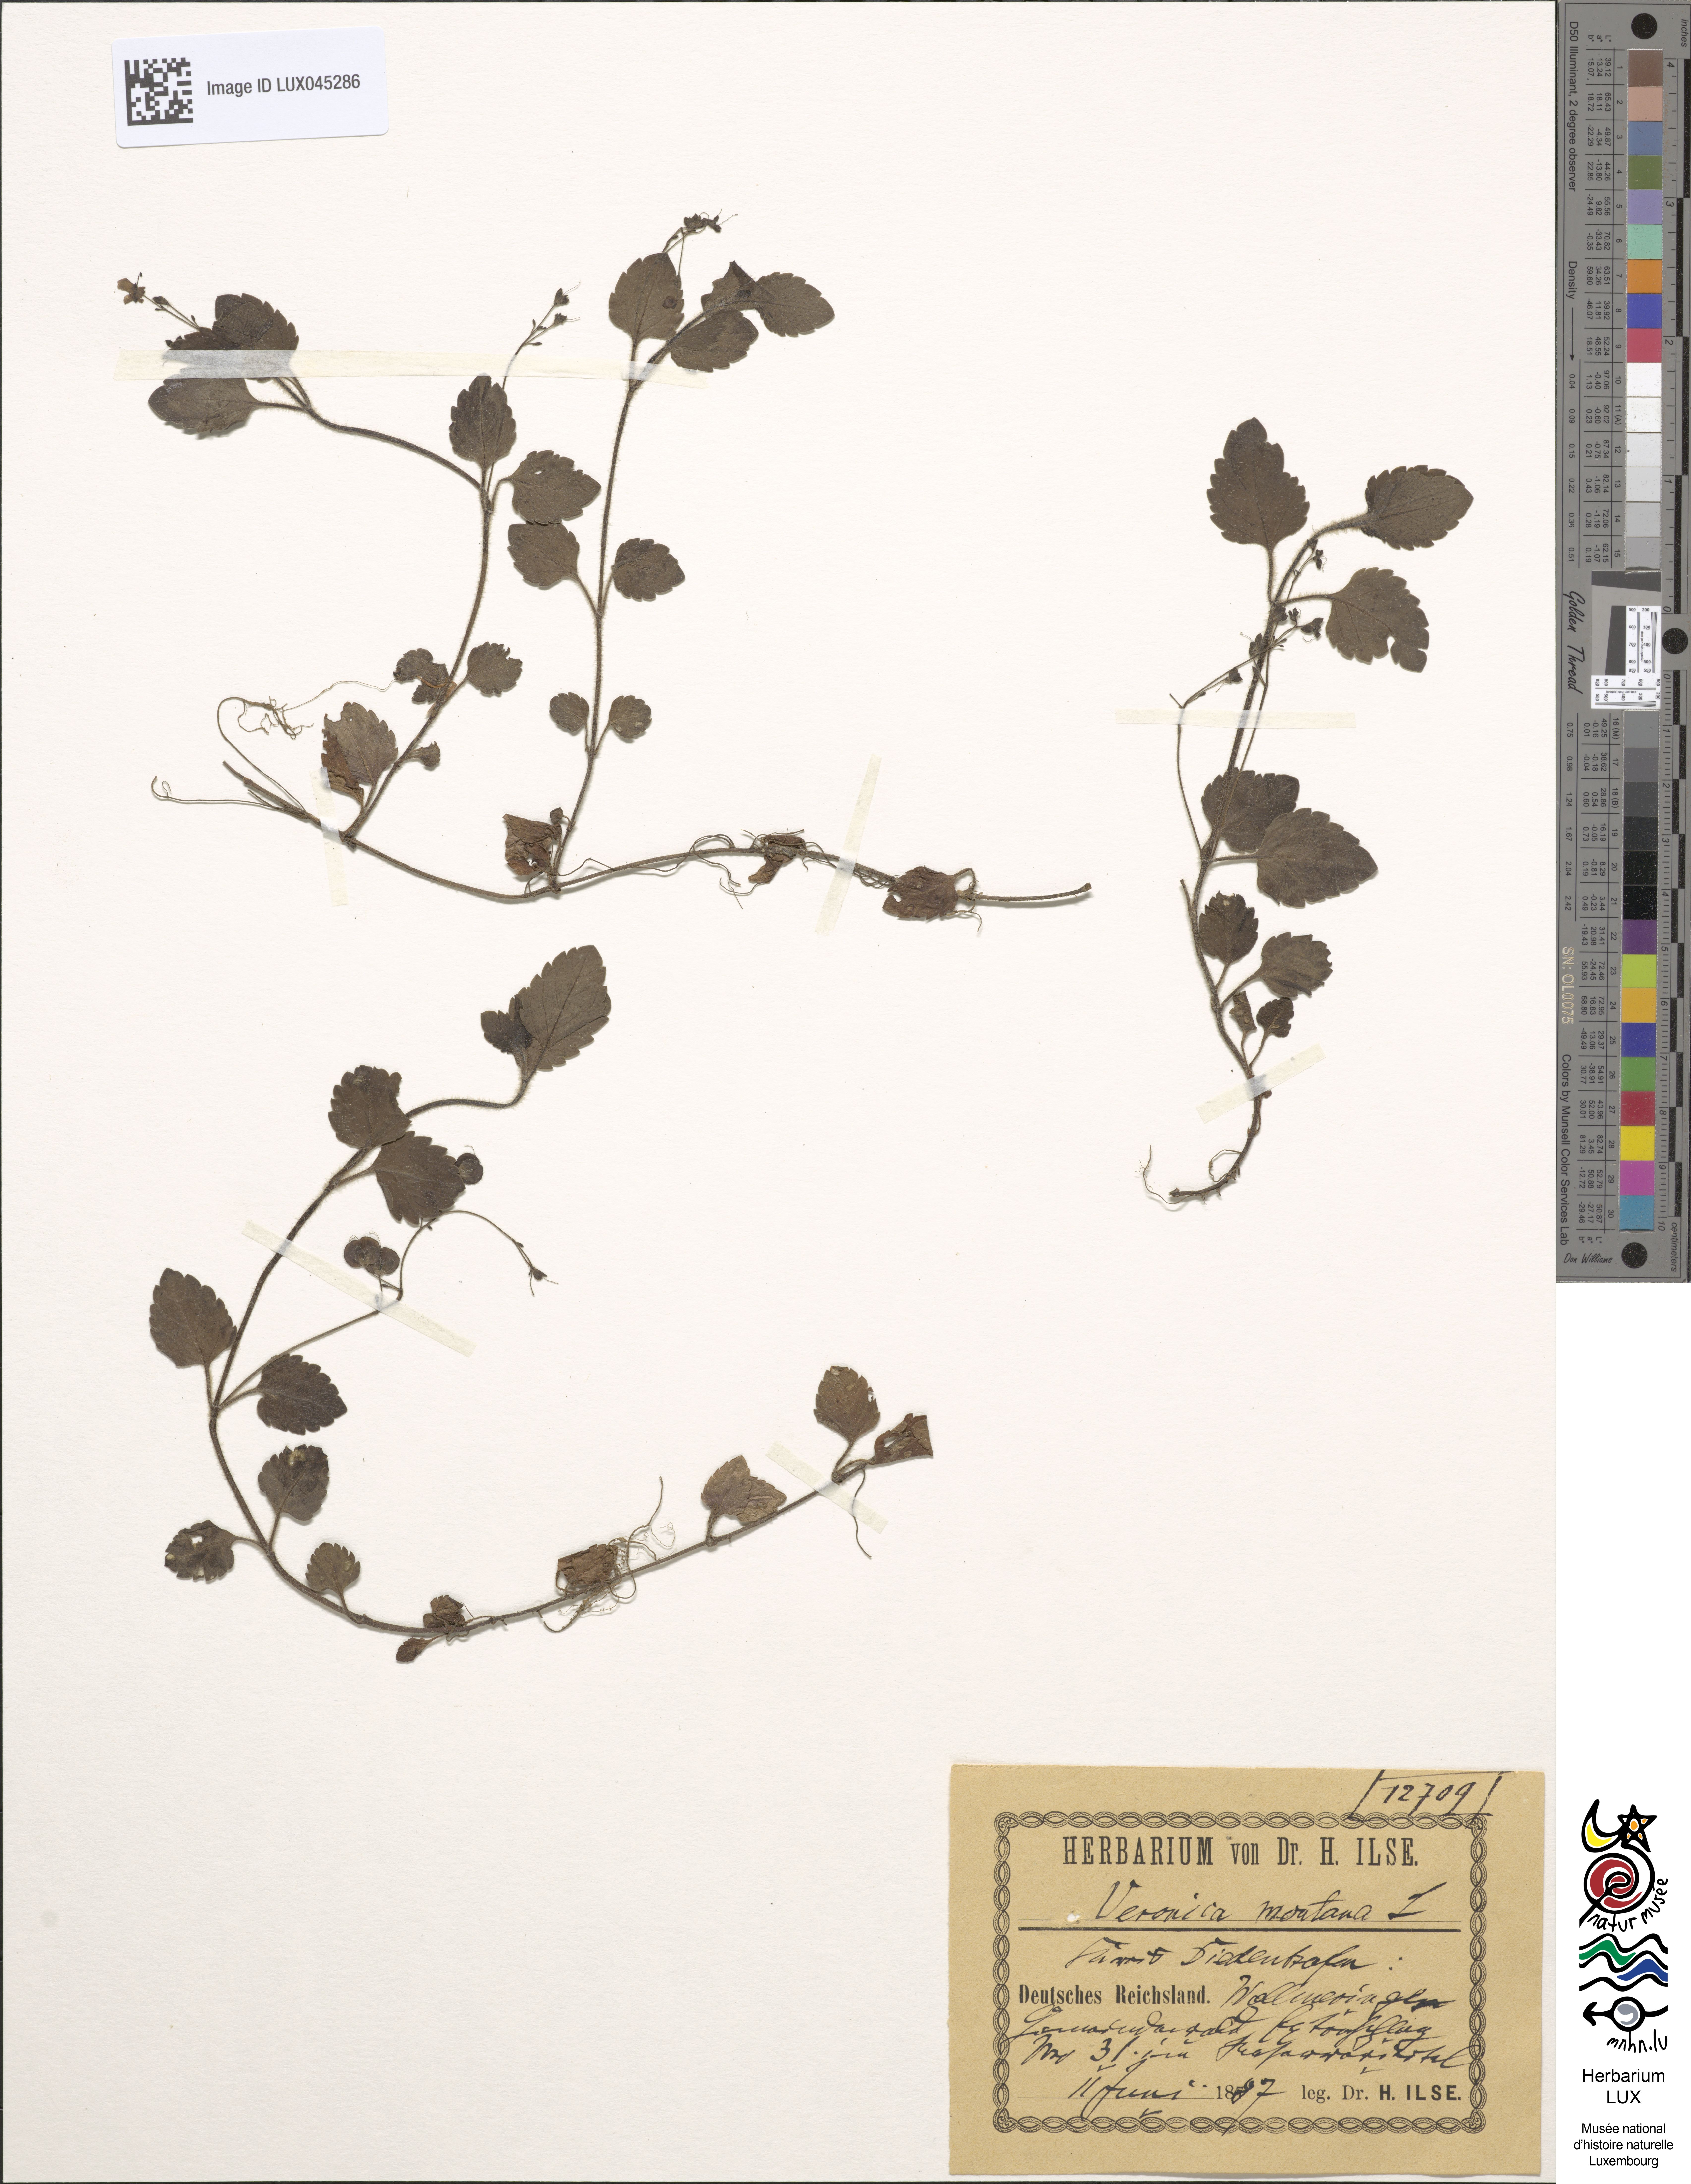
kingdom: Plantae
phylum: Tracheophyta
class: Magnoliopsida
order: Lamiales
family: Plantaginaceae
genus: Veronica
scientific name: Veronica montana
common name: Wood speedwell
